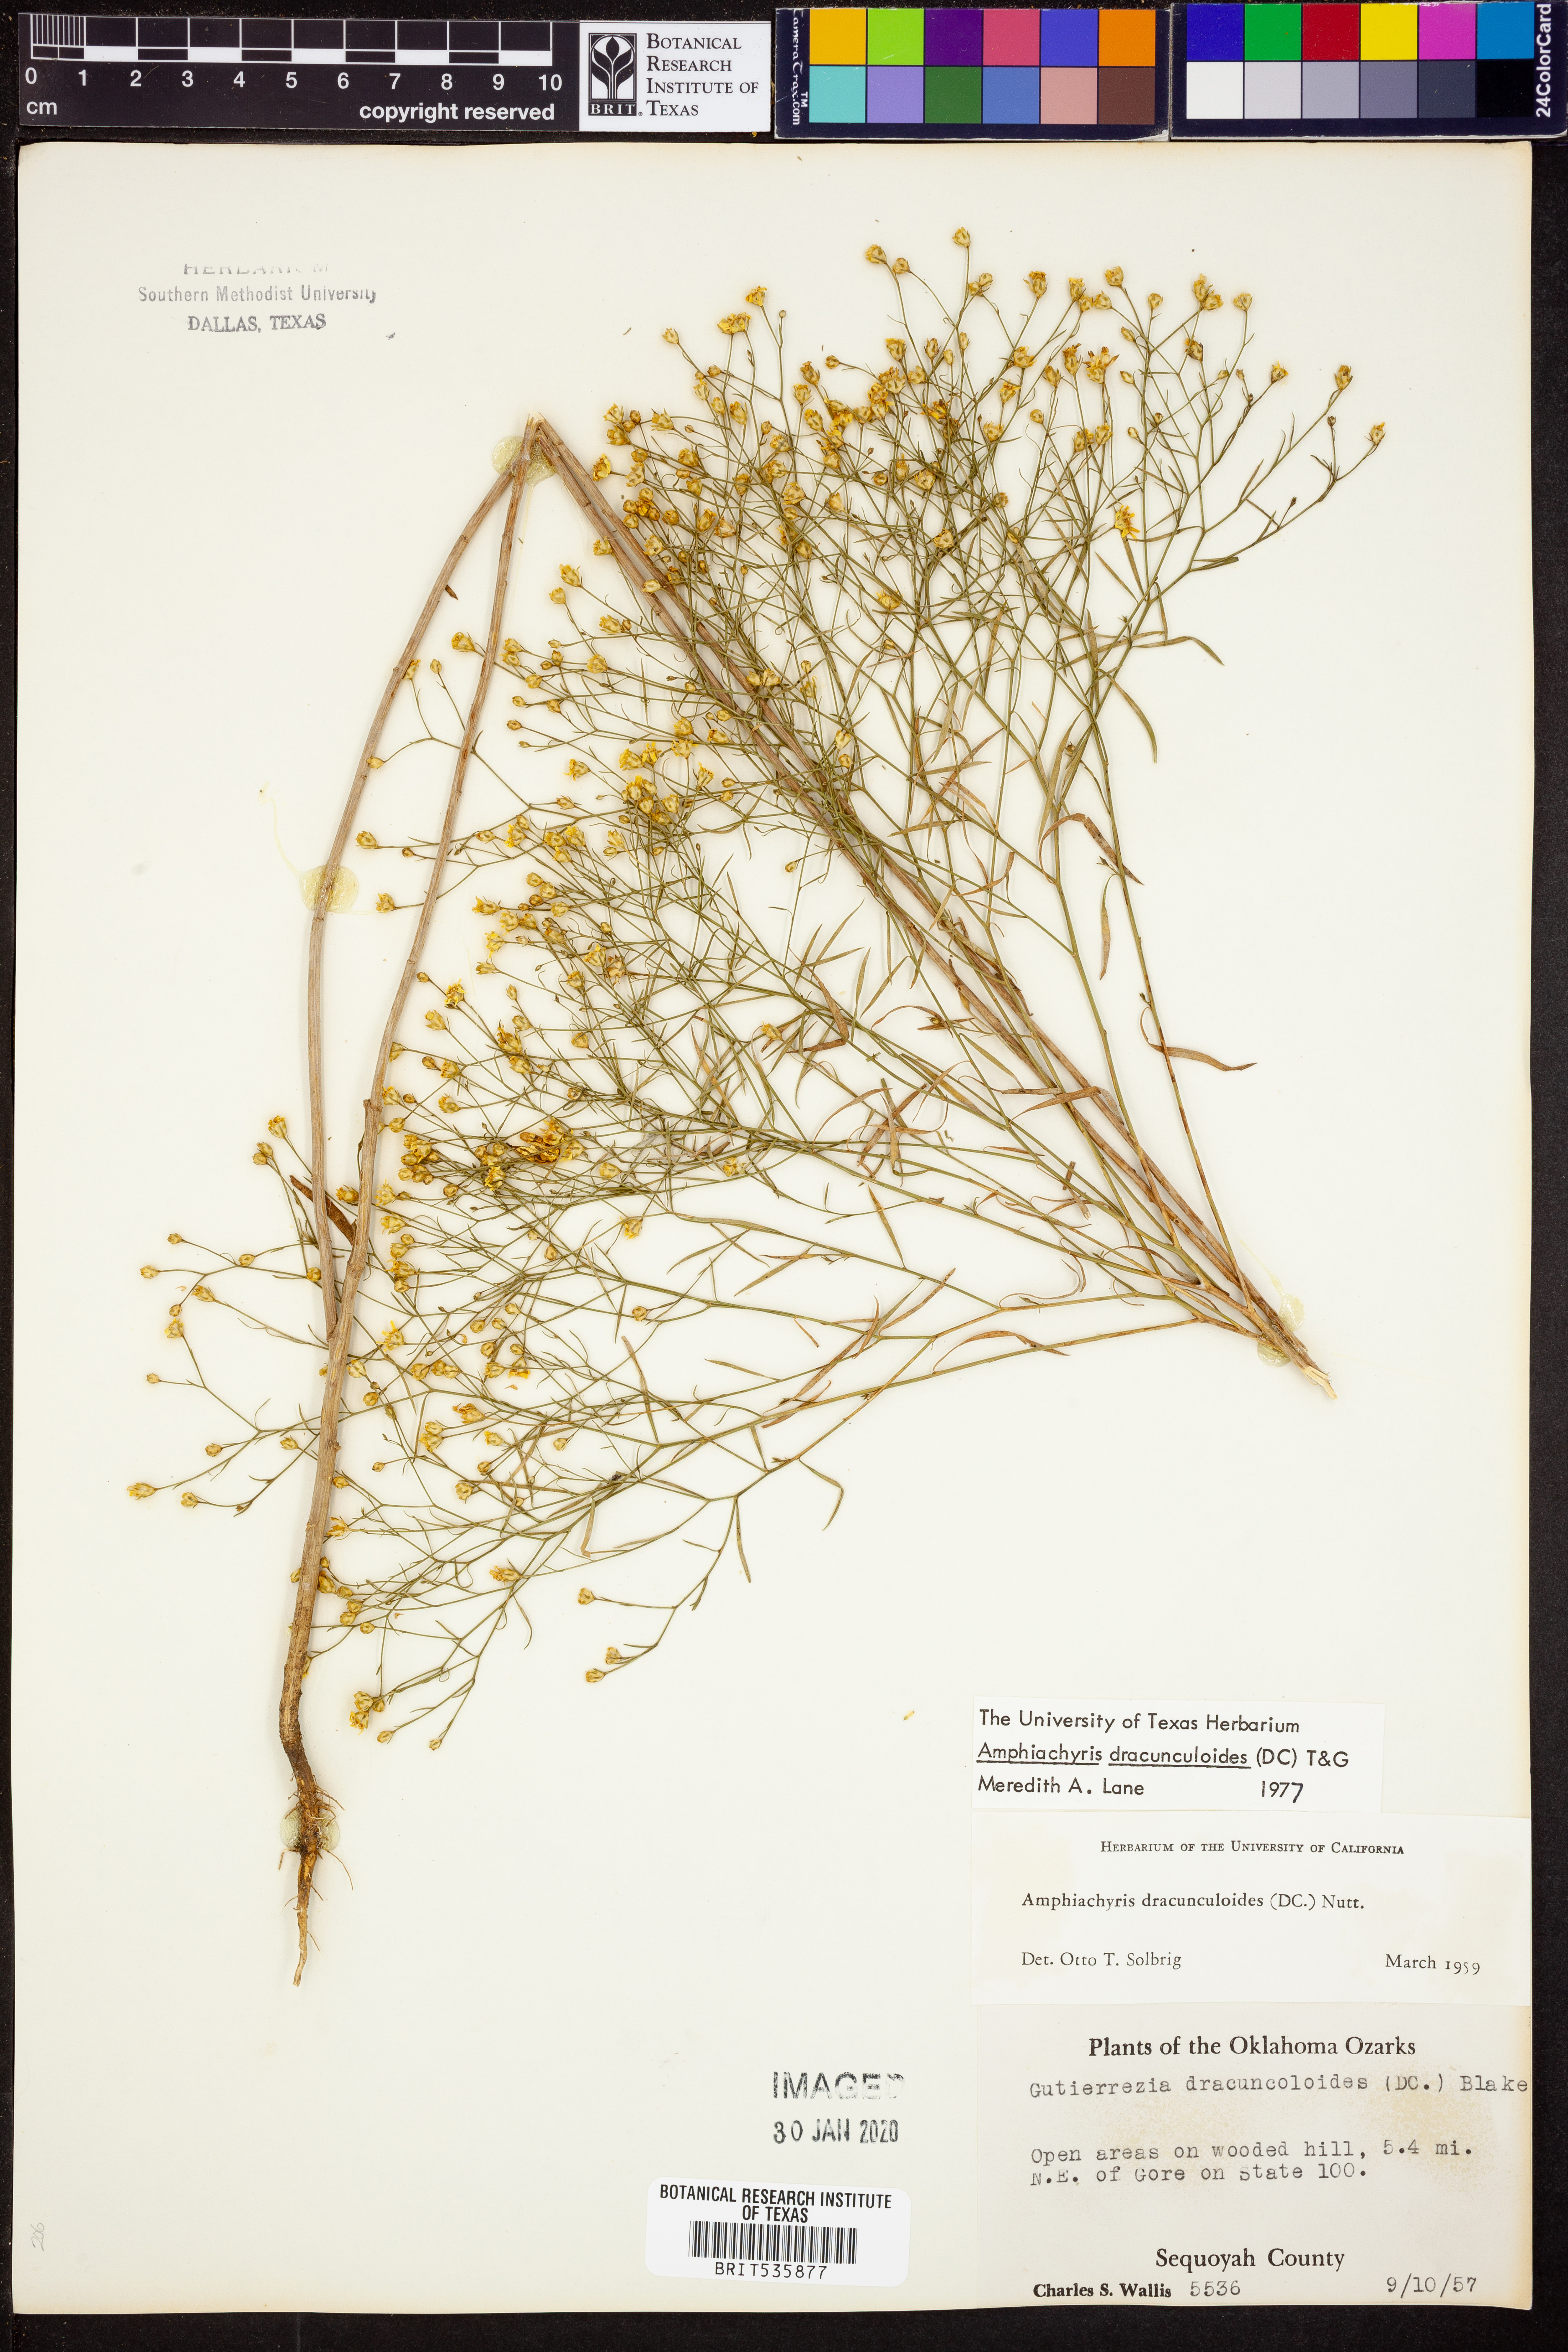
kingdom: Plantae
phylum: Tracheophyta
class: Magnoliopsida
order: Asterales
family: Asteraceae
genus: Amphiachyris
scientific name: Amphiachyris dracunculoides
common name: Broomweed
